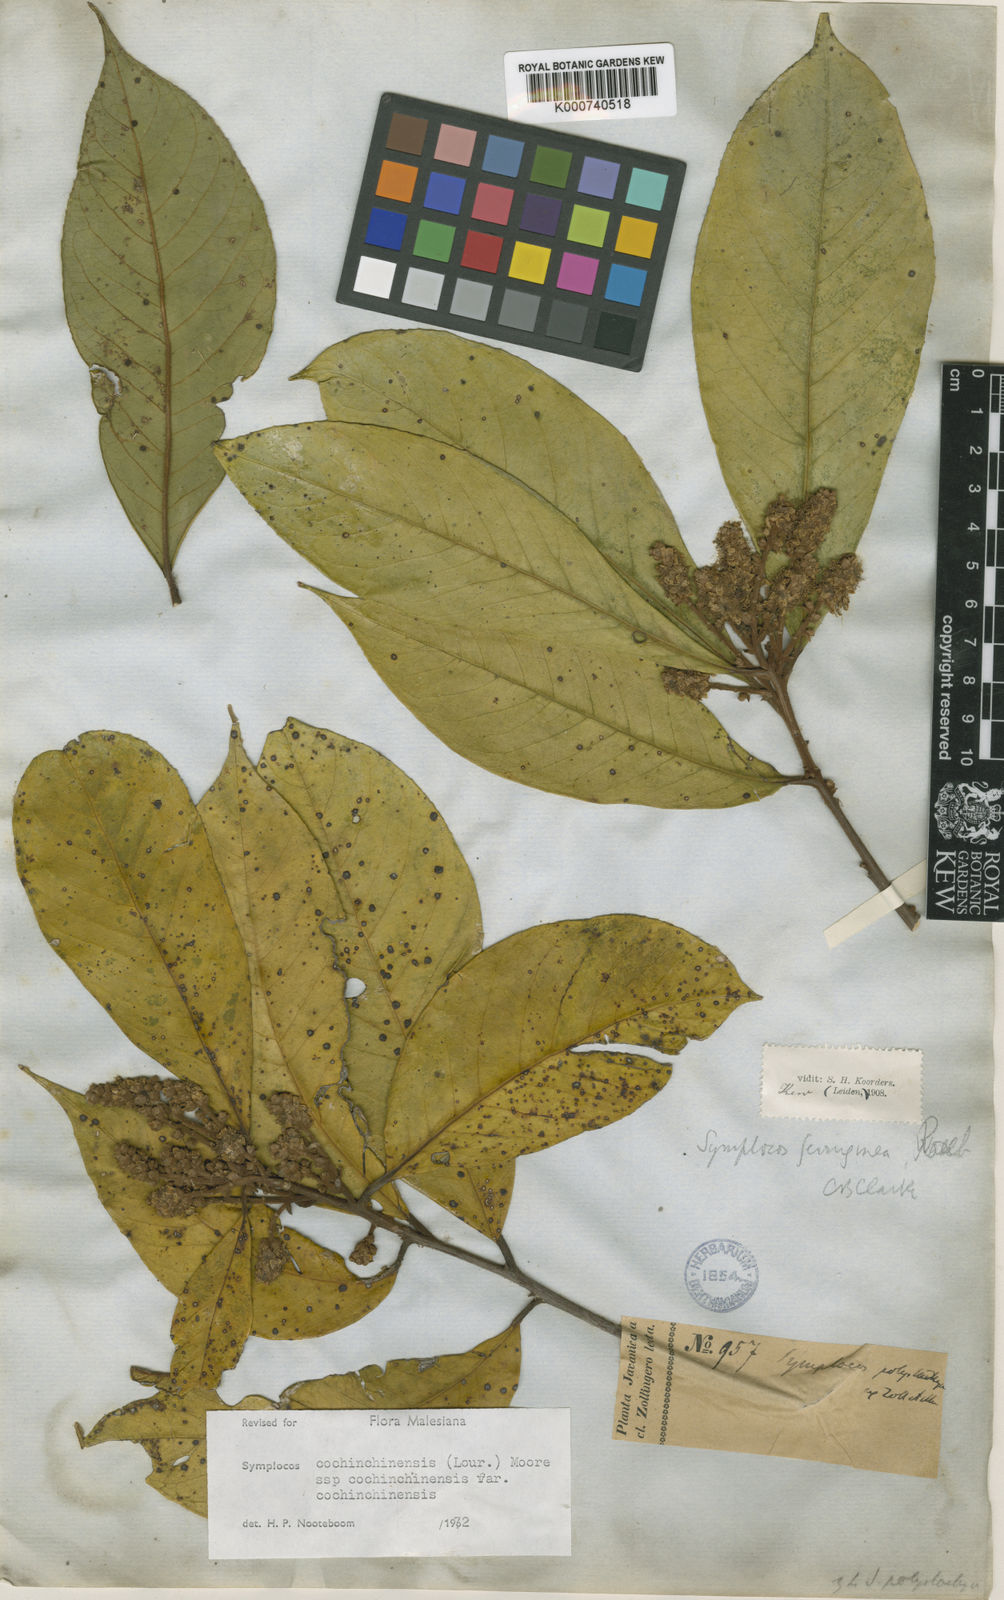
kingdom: Plantae
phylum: Tracheophyta
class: Magnoliopsida
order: Ericales
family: Symplocaceae
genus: Symplocos
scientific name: Symplocos cochinchinensis
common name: Buff hazelwood
